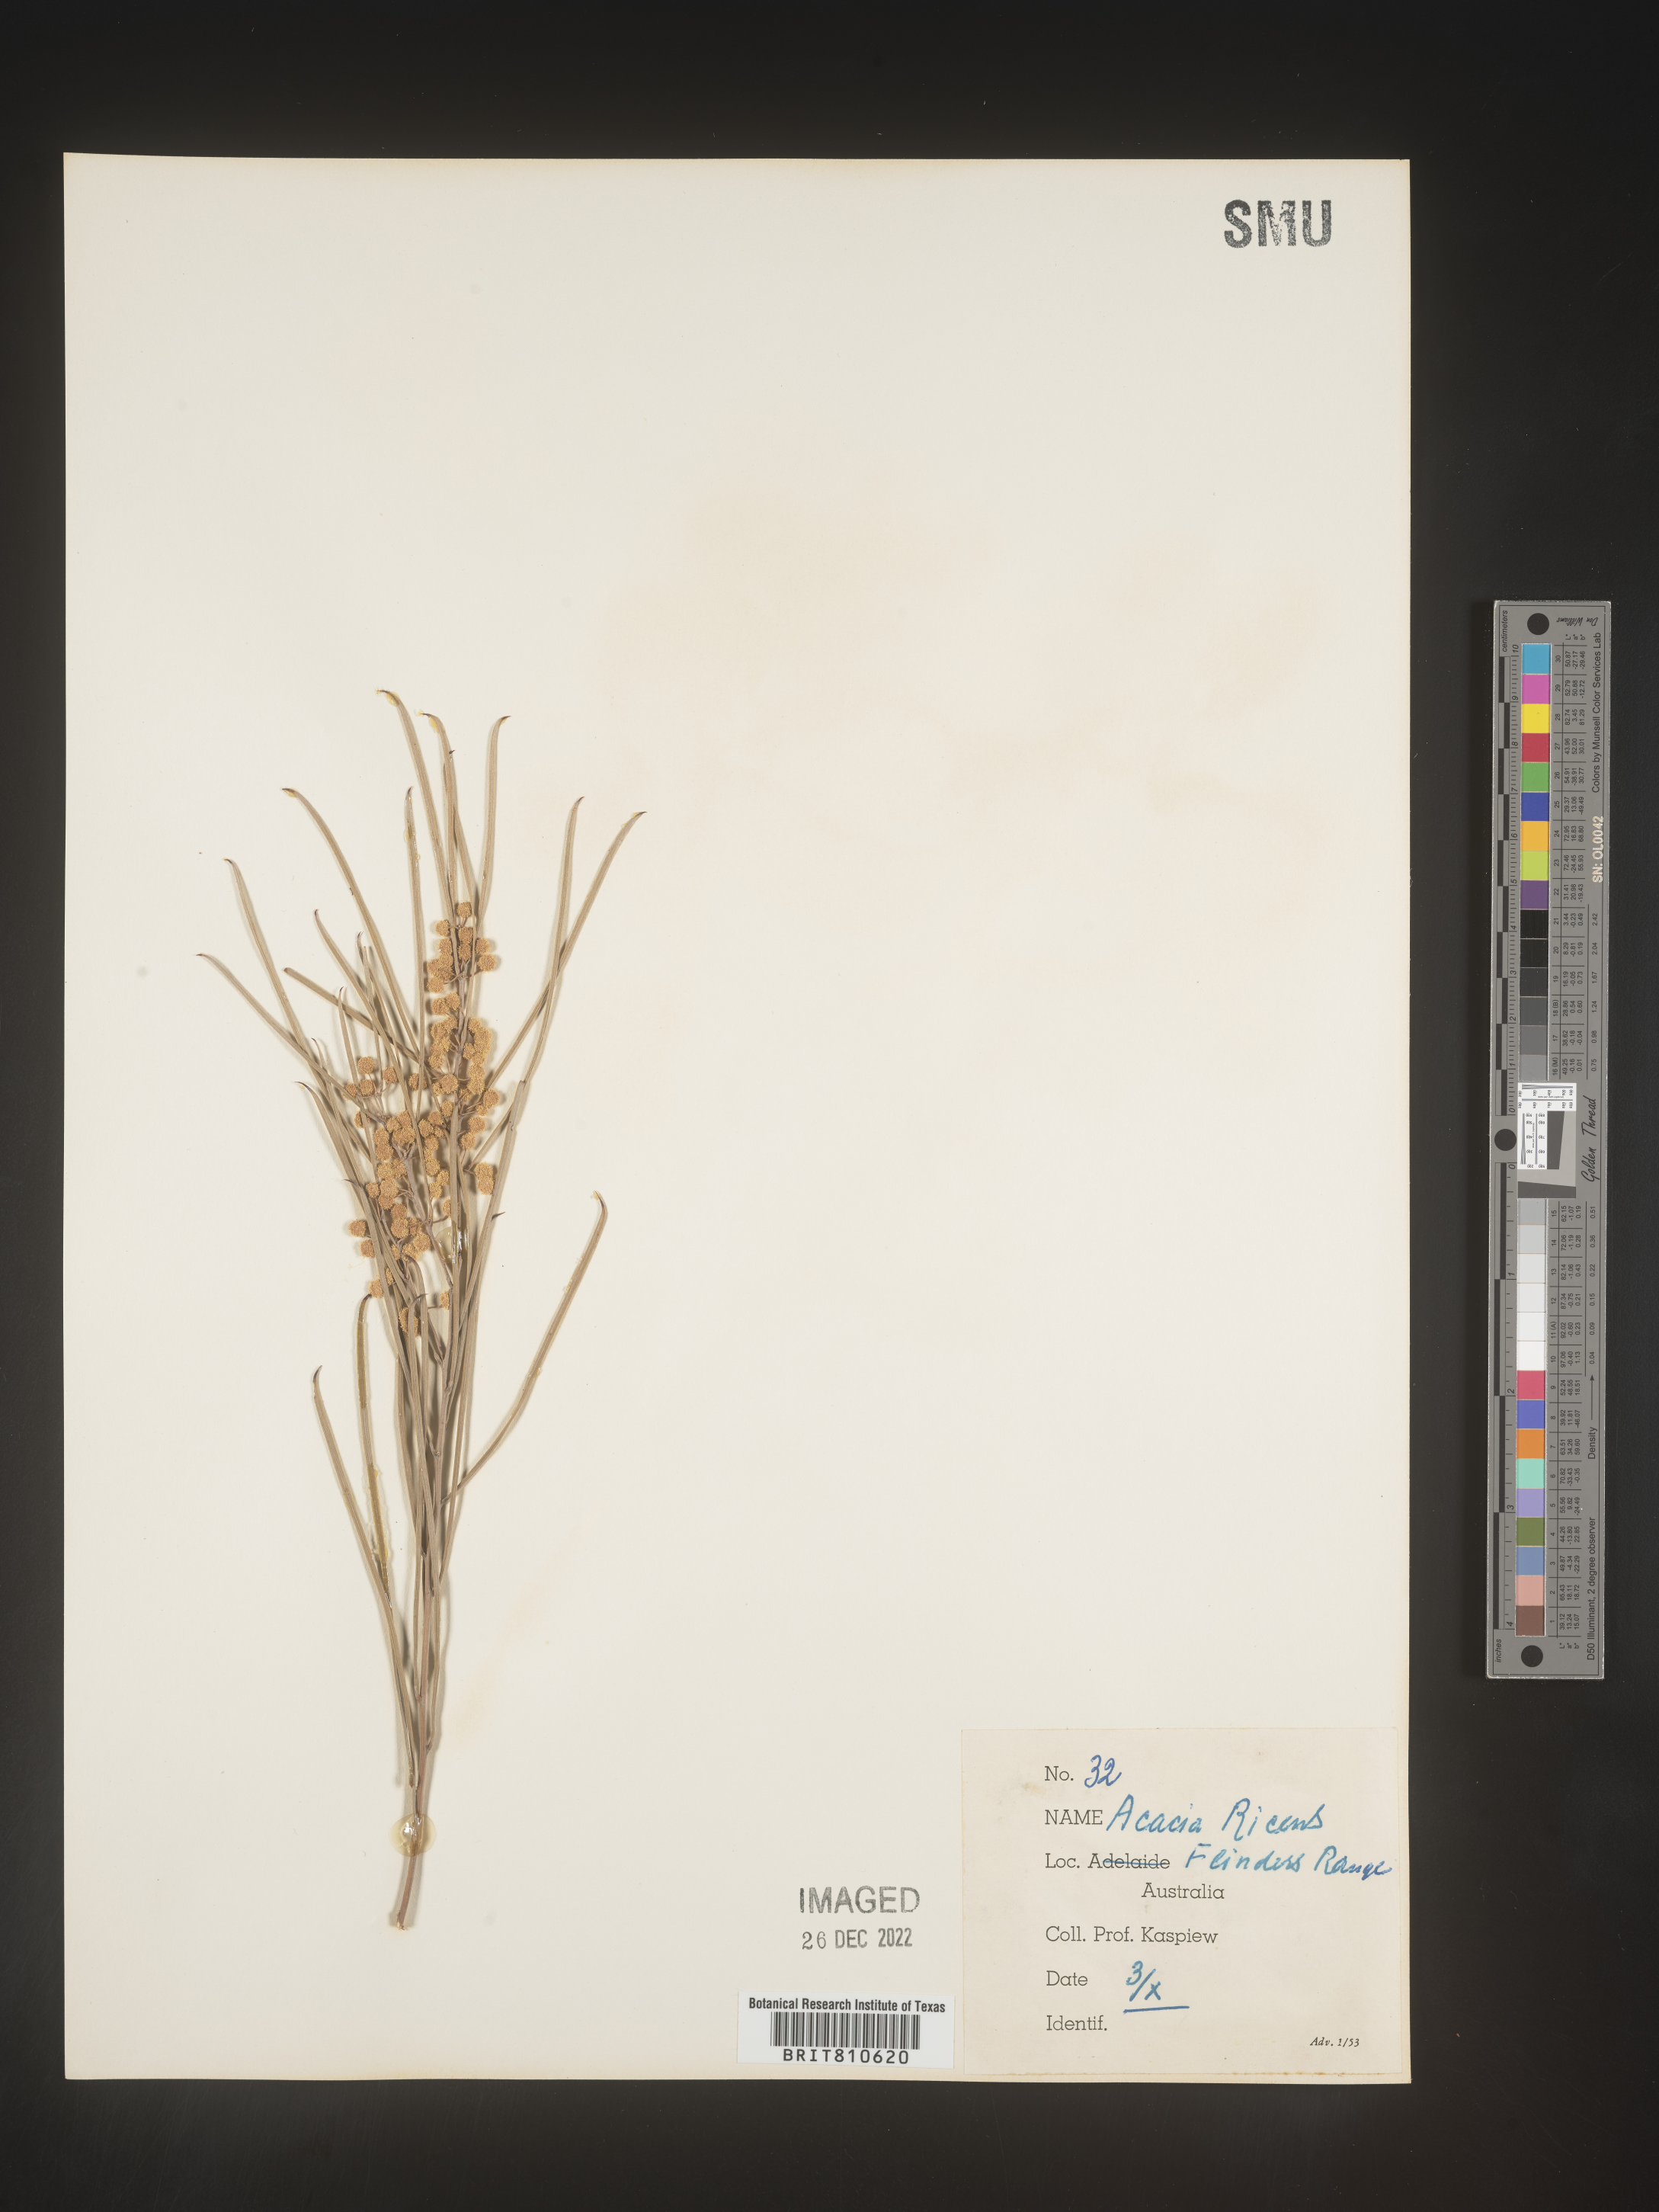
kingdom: Plantae
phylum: Tracheophyta
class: Magnoliopsida
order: Fabales
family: Fabaceae
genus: Acacia
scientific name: Acacia
